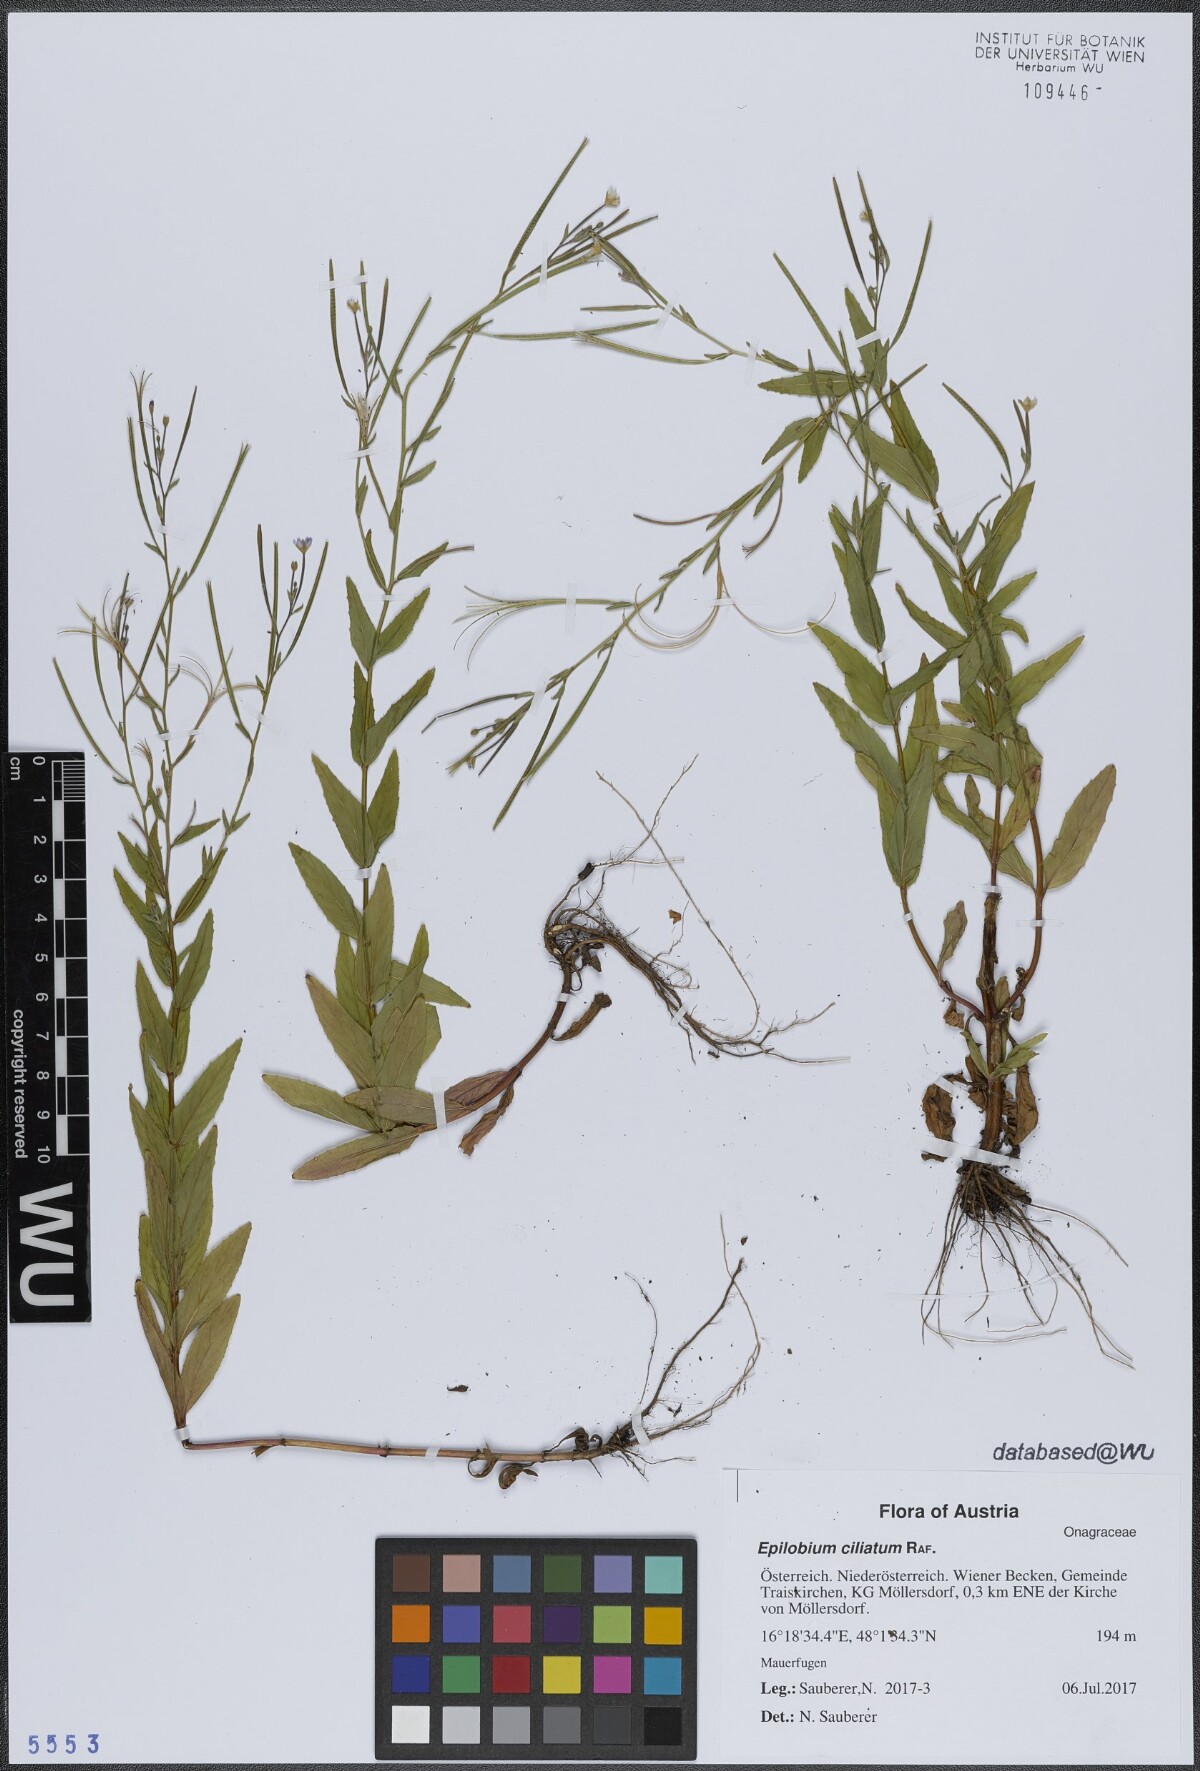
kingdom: Plantae
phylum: Tracheophyta
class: Magnoliopsida
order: Myrtales
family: Onagraceae
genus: Epilobium
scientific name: Epilobium ciliatum
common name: American willowherb
